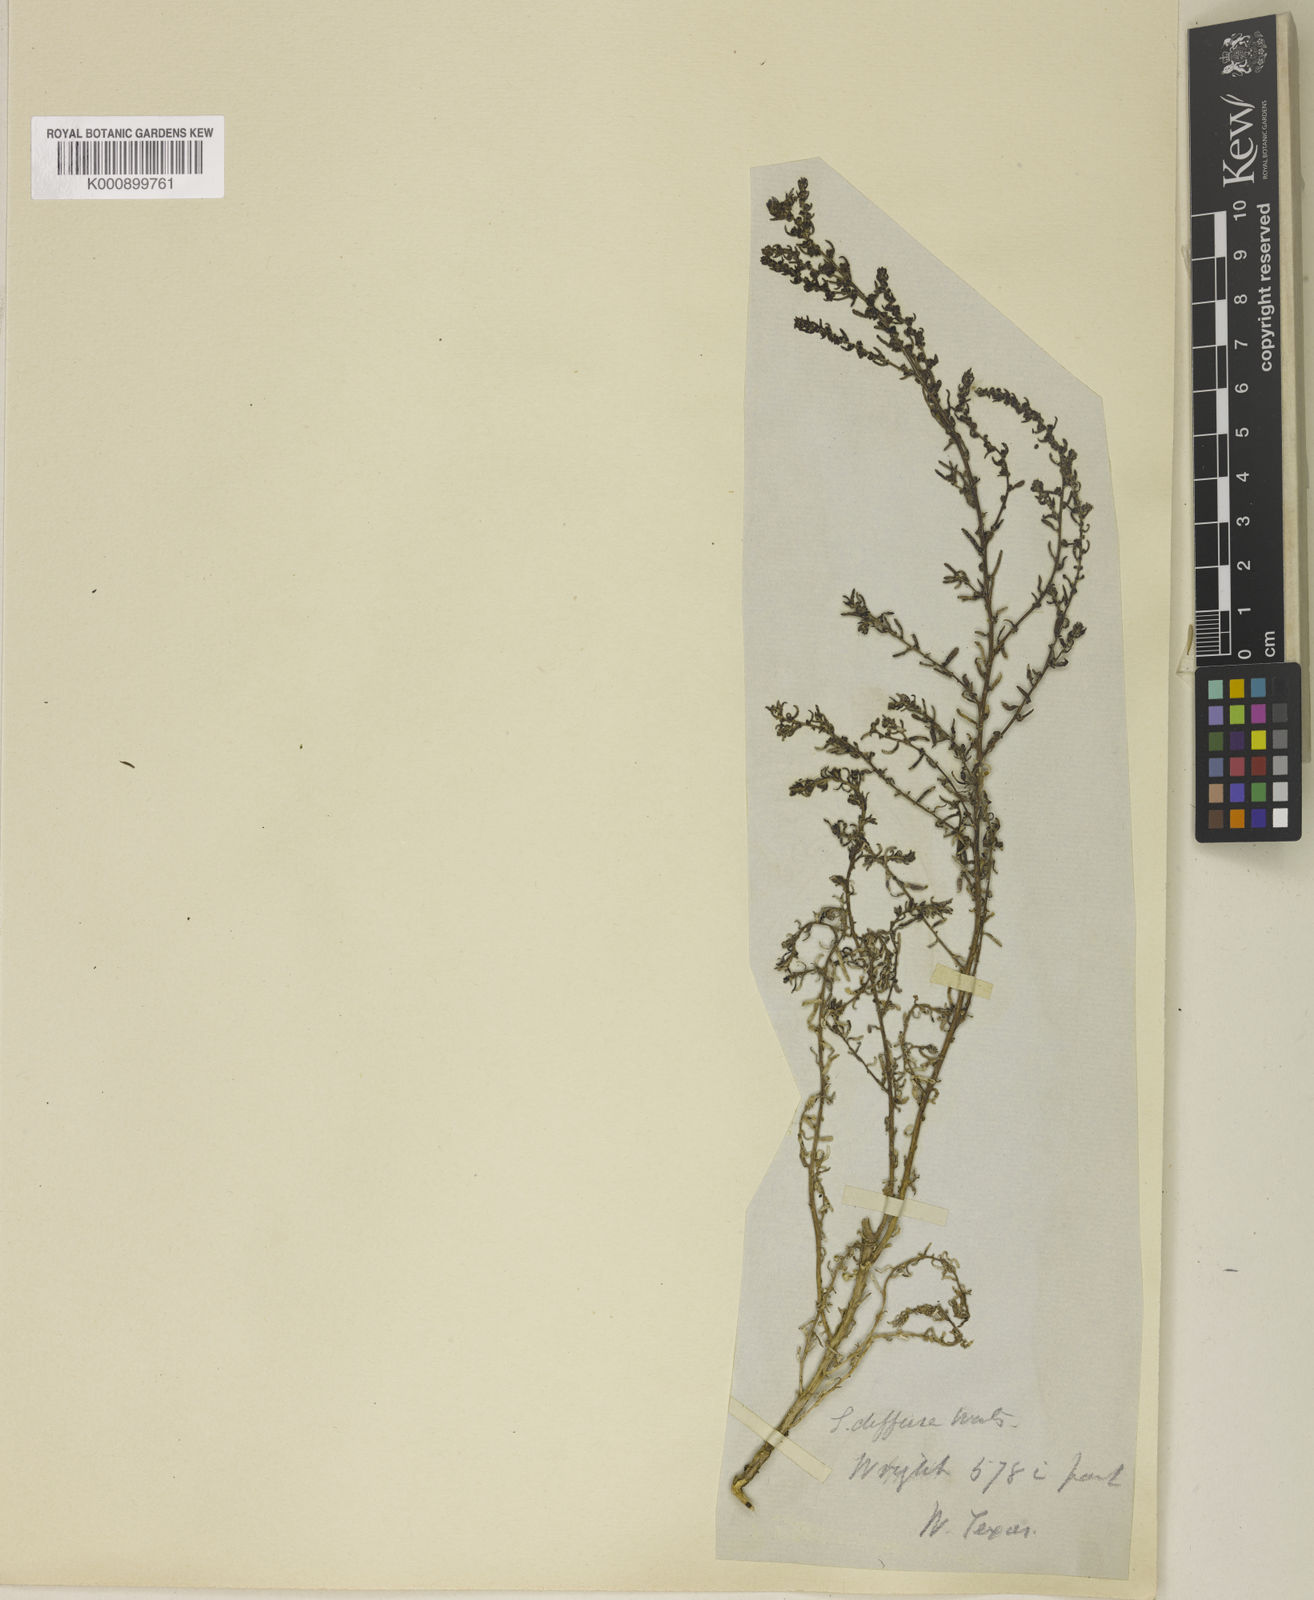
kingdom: Plantae
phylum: Tracheophyta
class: Magnoliopsida
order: Caryophyllales
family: Amaranthaceae
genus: Suaeda
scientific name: Suaeda nigra
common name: Bush seepweed
